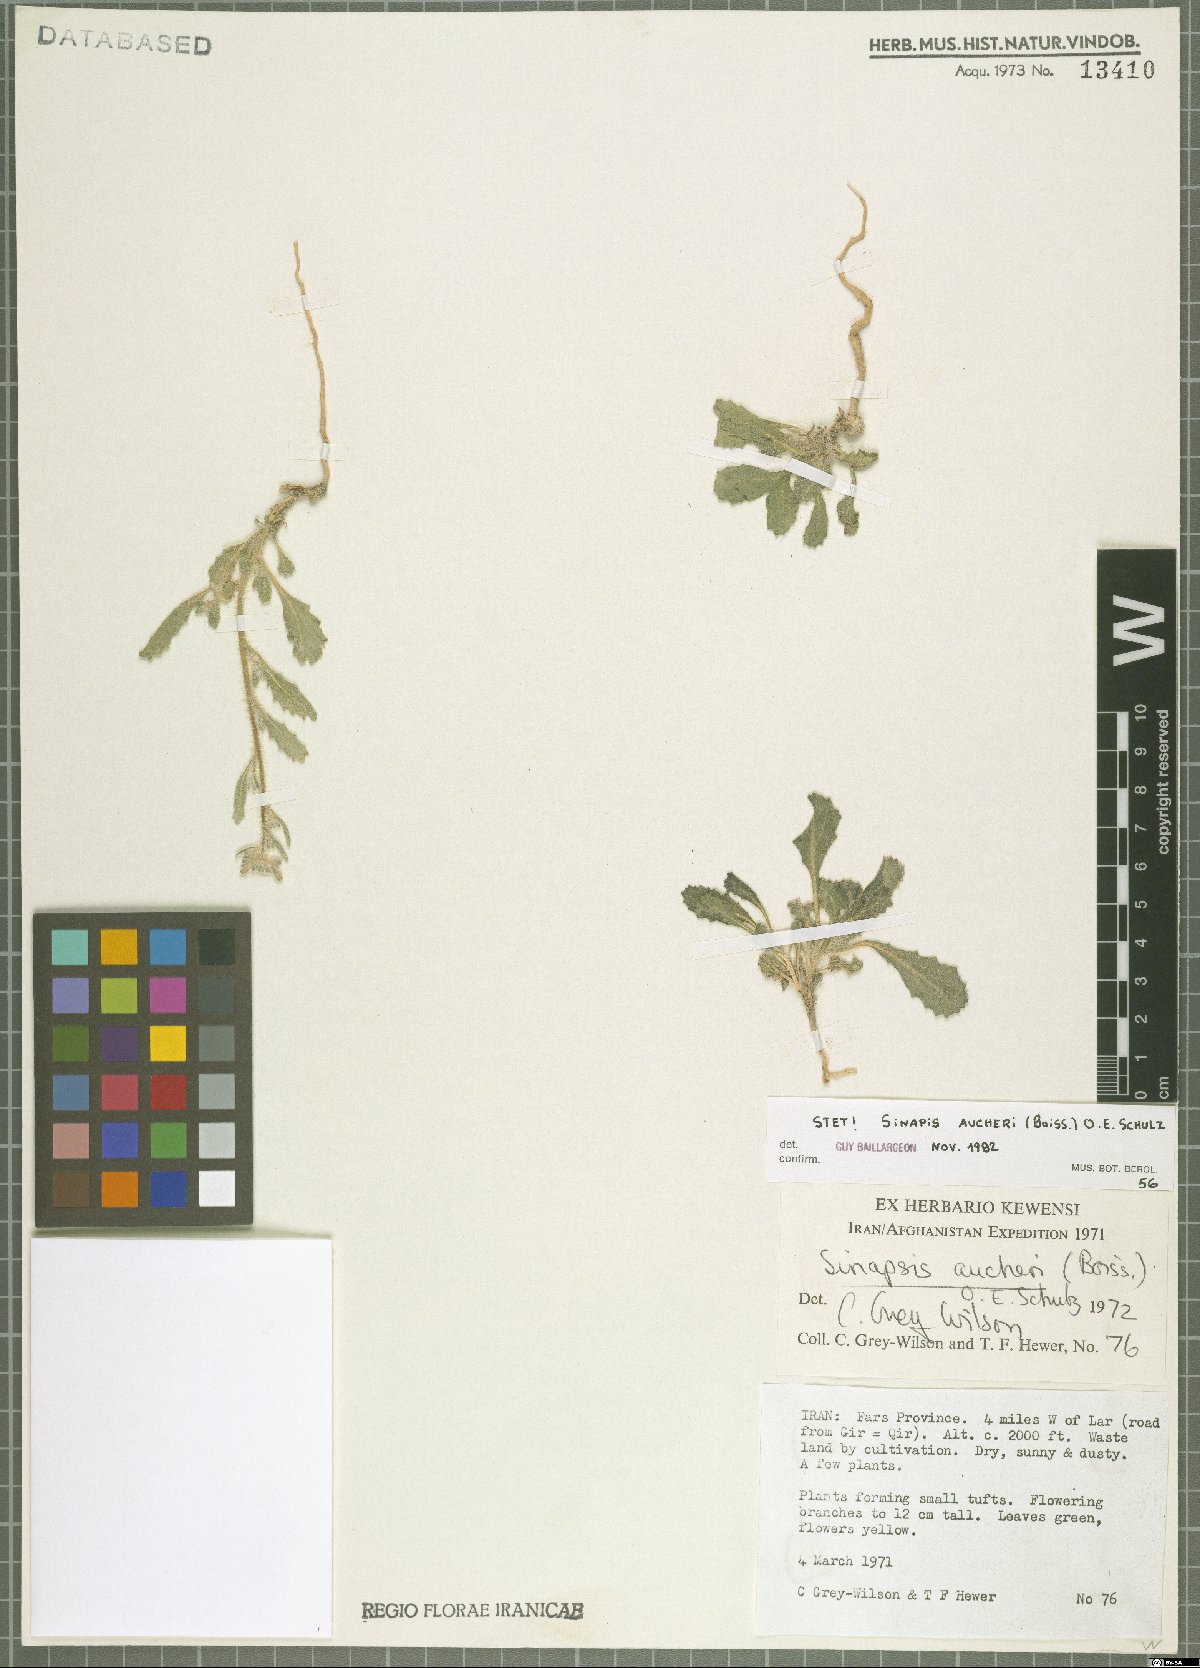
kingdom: Plantae
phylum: Tracheophyta
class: Magnoliopsida
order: Brassicales
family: Brassicaceae
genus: Brassica
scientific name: Brassica aucheri
